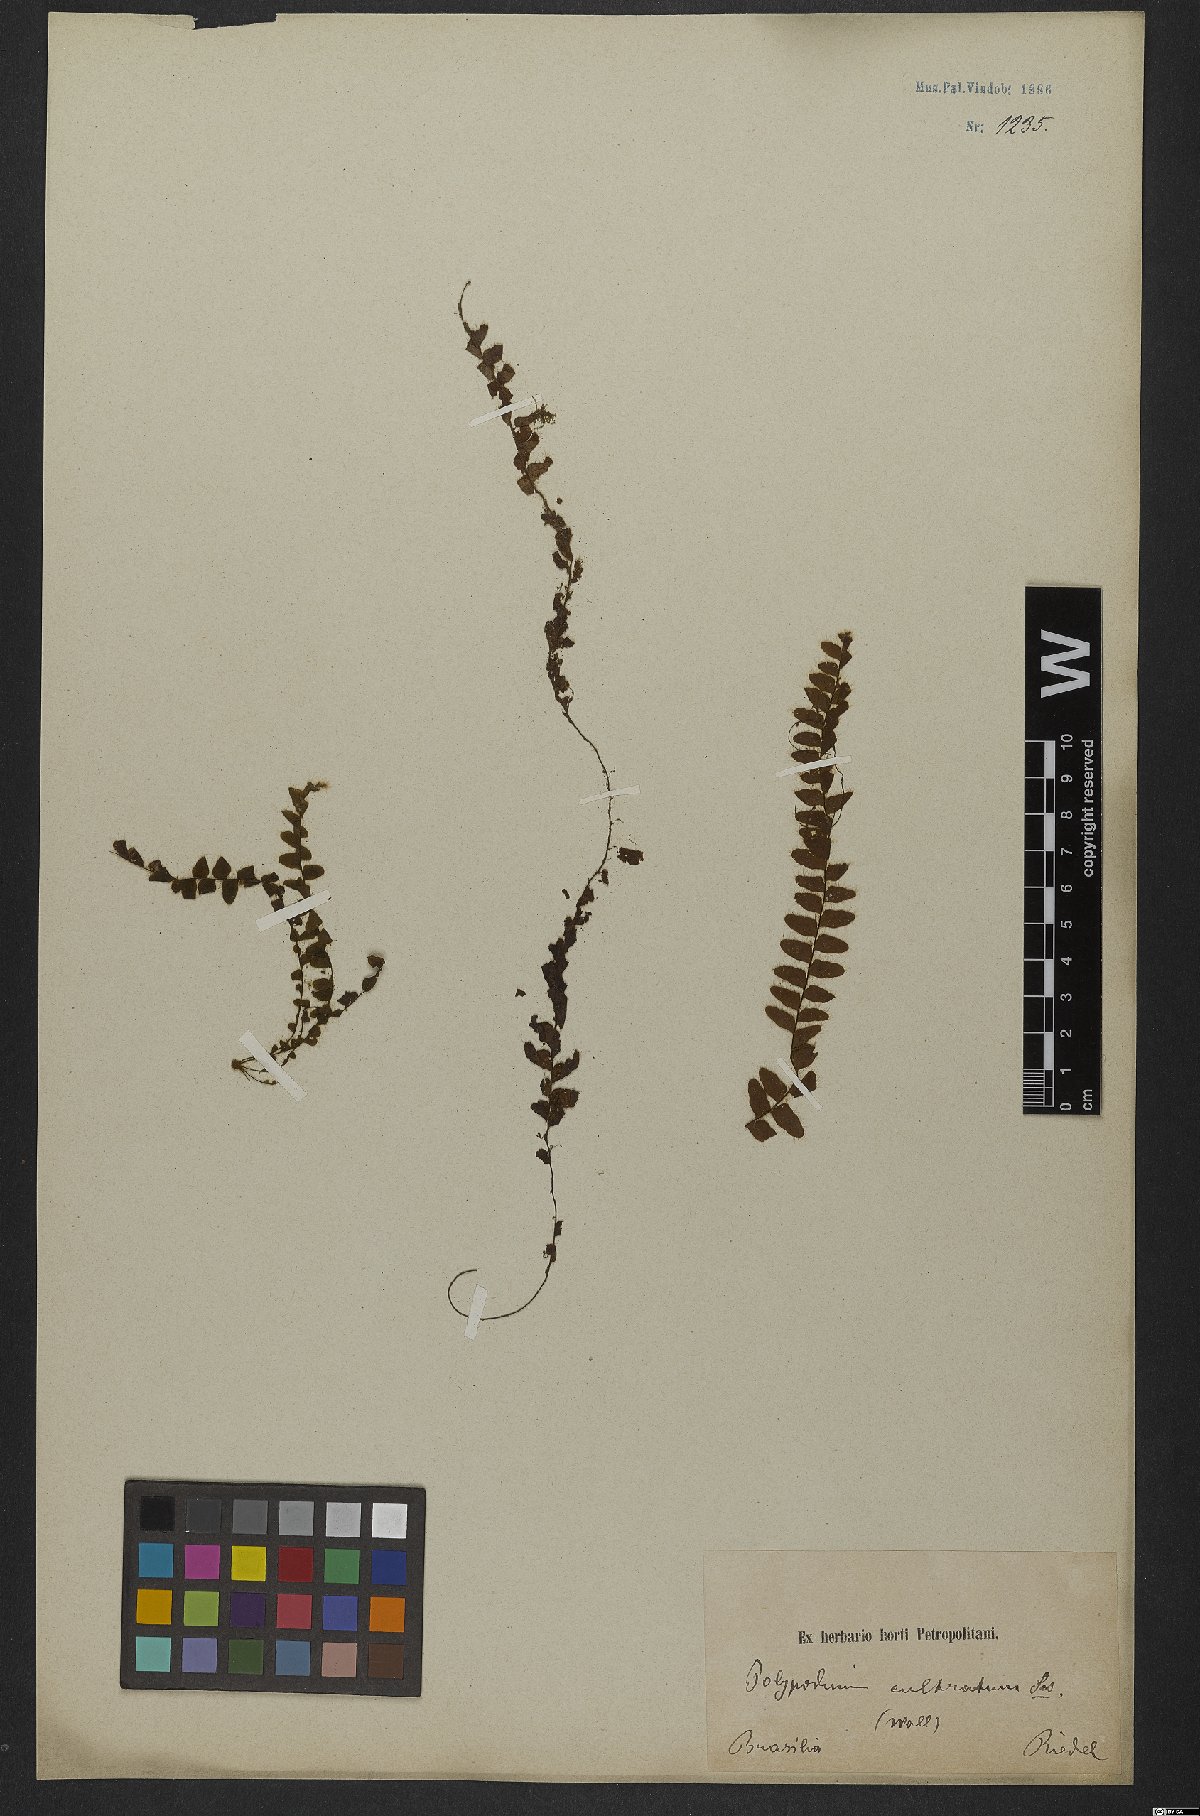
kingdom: Plantae
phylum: Tracheophyta
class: Polypodiopsida
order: Polypodiales
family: Polypodiaceae
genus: Alansmia
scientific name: Alansmia cultrata
